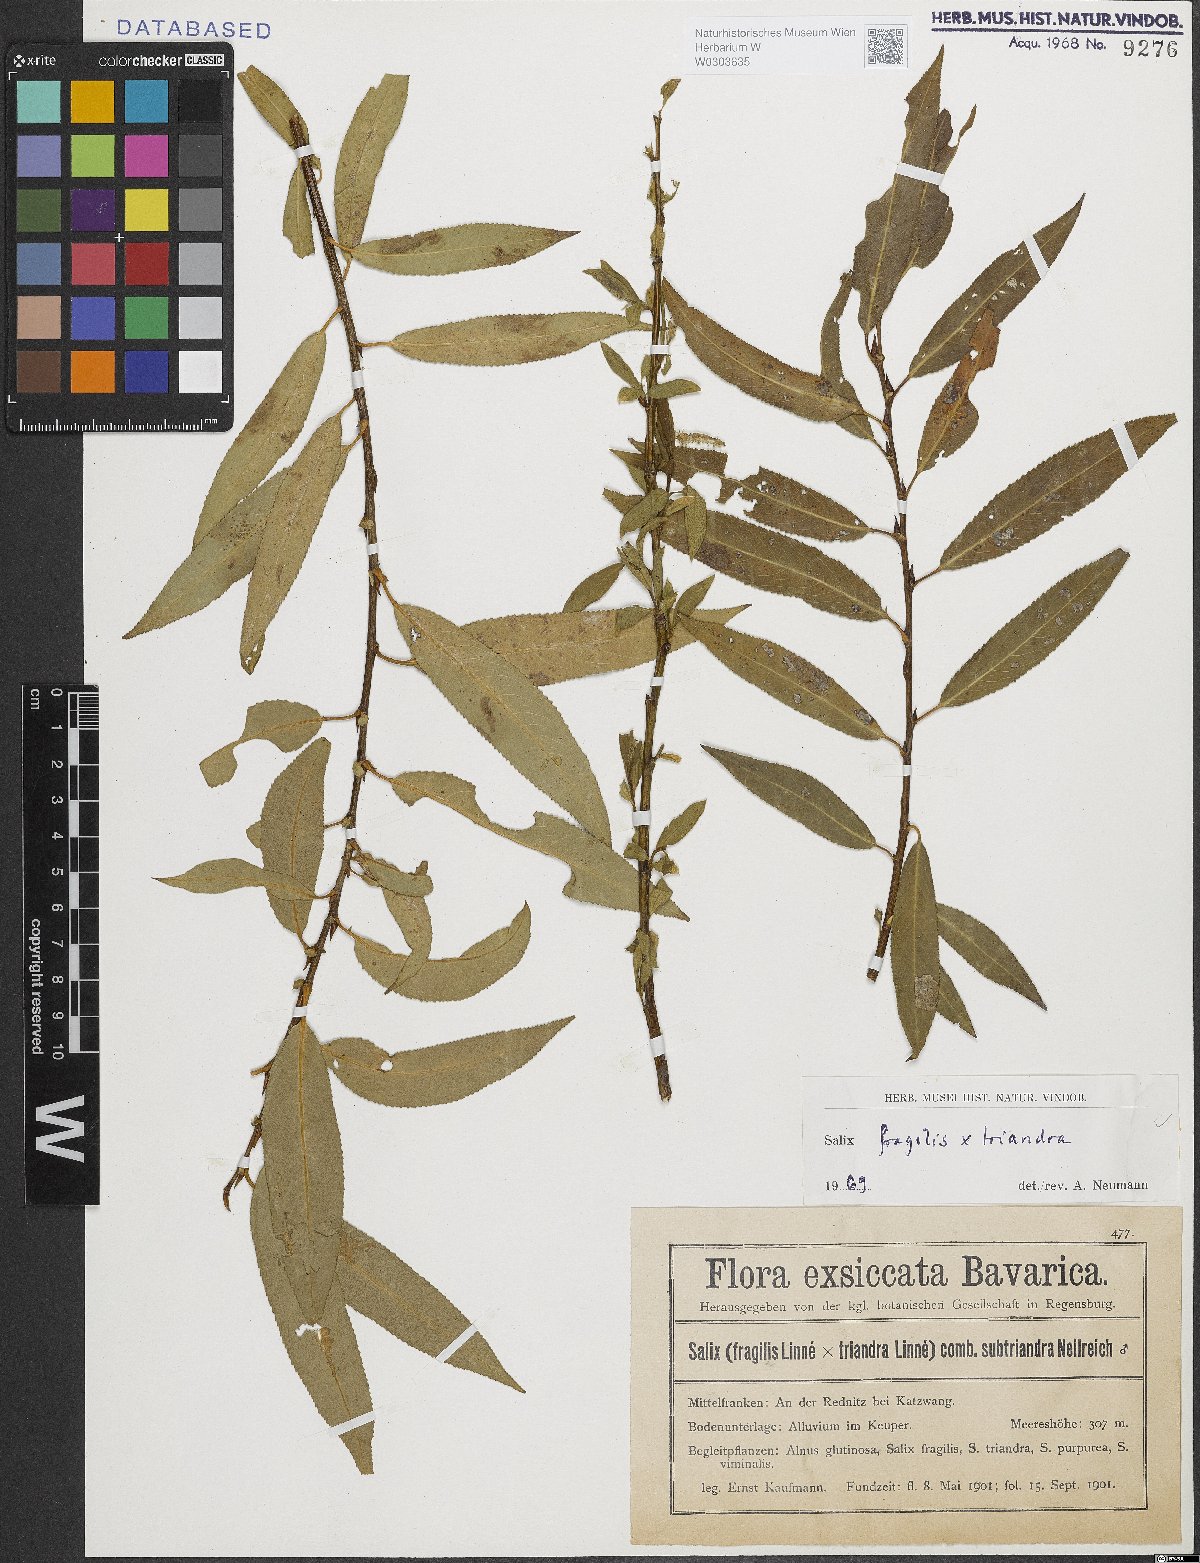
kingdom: Plantae
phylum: Tracheophyta
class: Magnoliopsida
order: Malpighiales
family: Salicaceae
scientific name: Salicaceae
